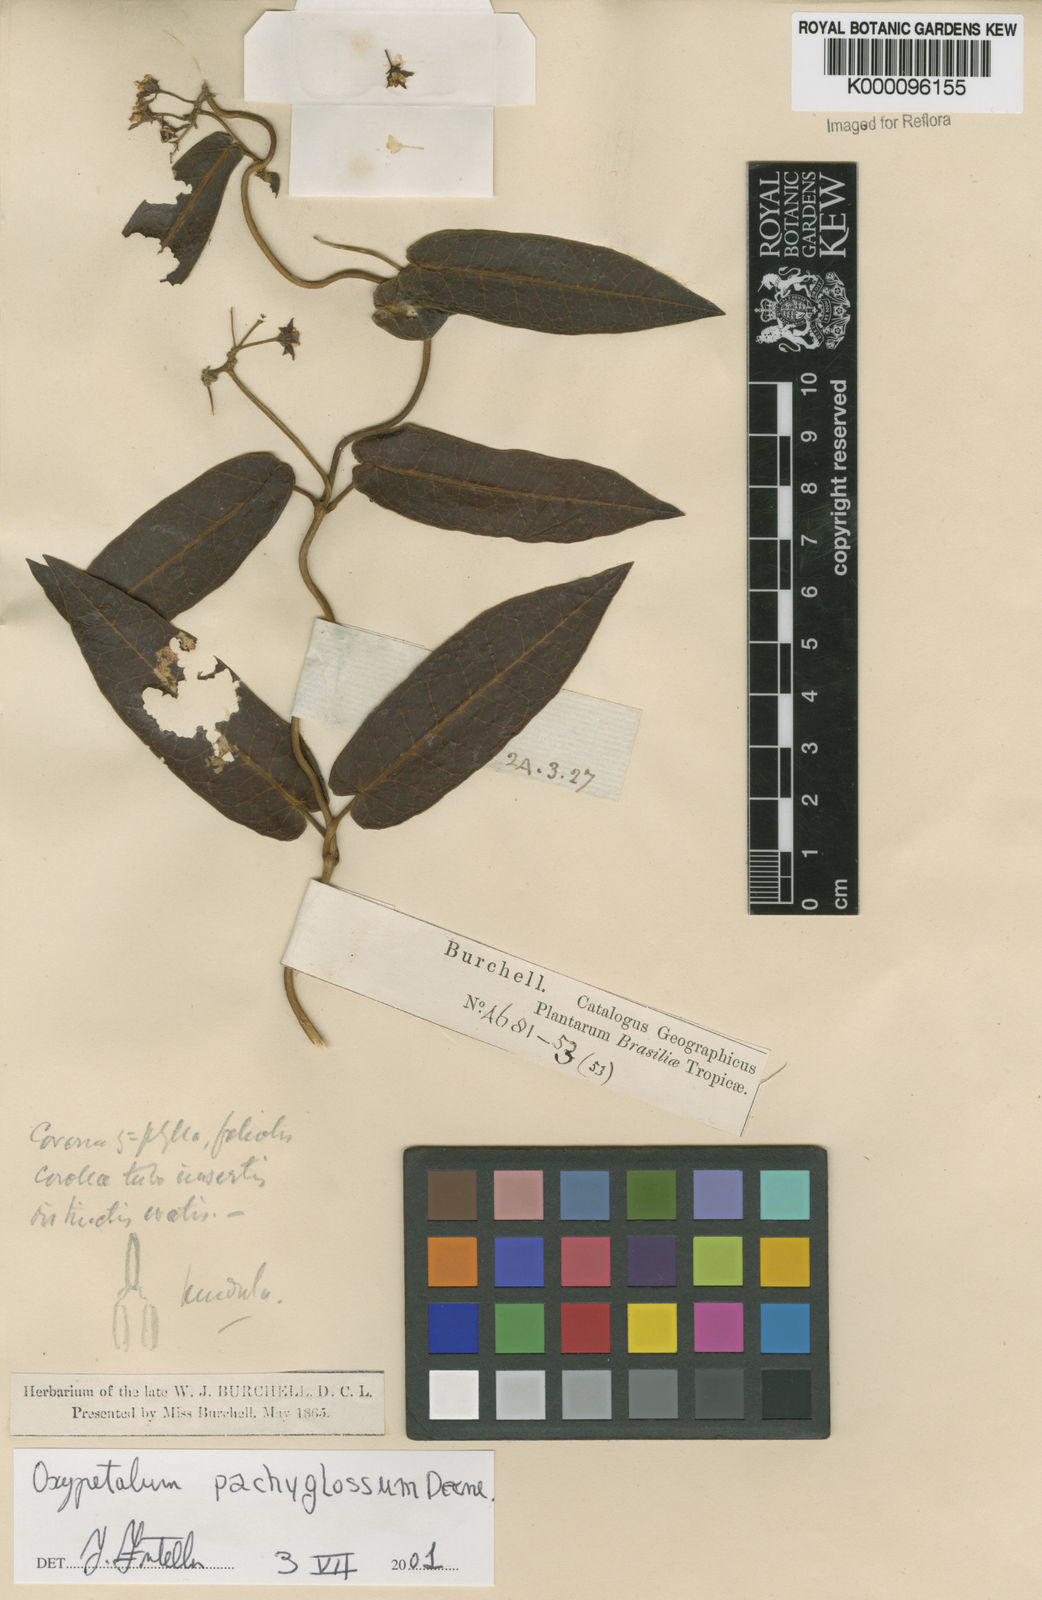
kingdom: Plantae
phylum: Tracheophyta
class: Magnoliopsida
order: Gentianales
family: Apocynaceae
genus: Oxypetalum
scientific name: Oxypetalum pachyglossum
